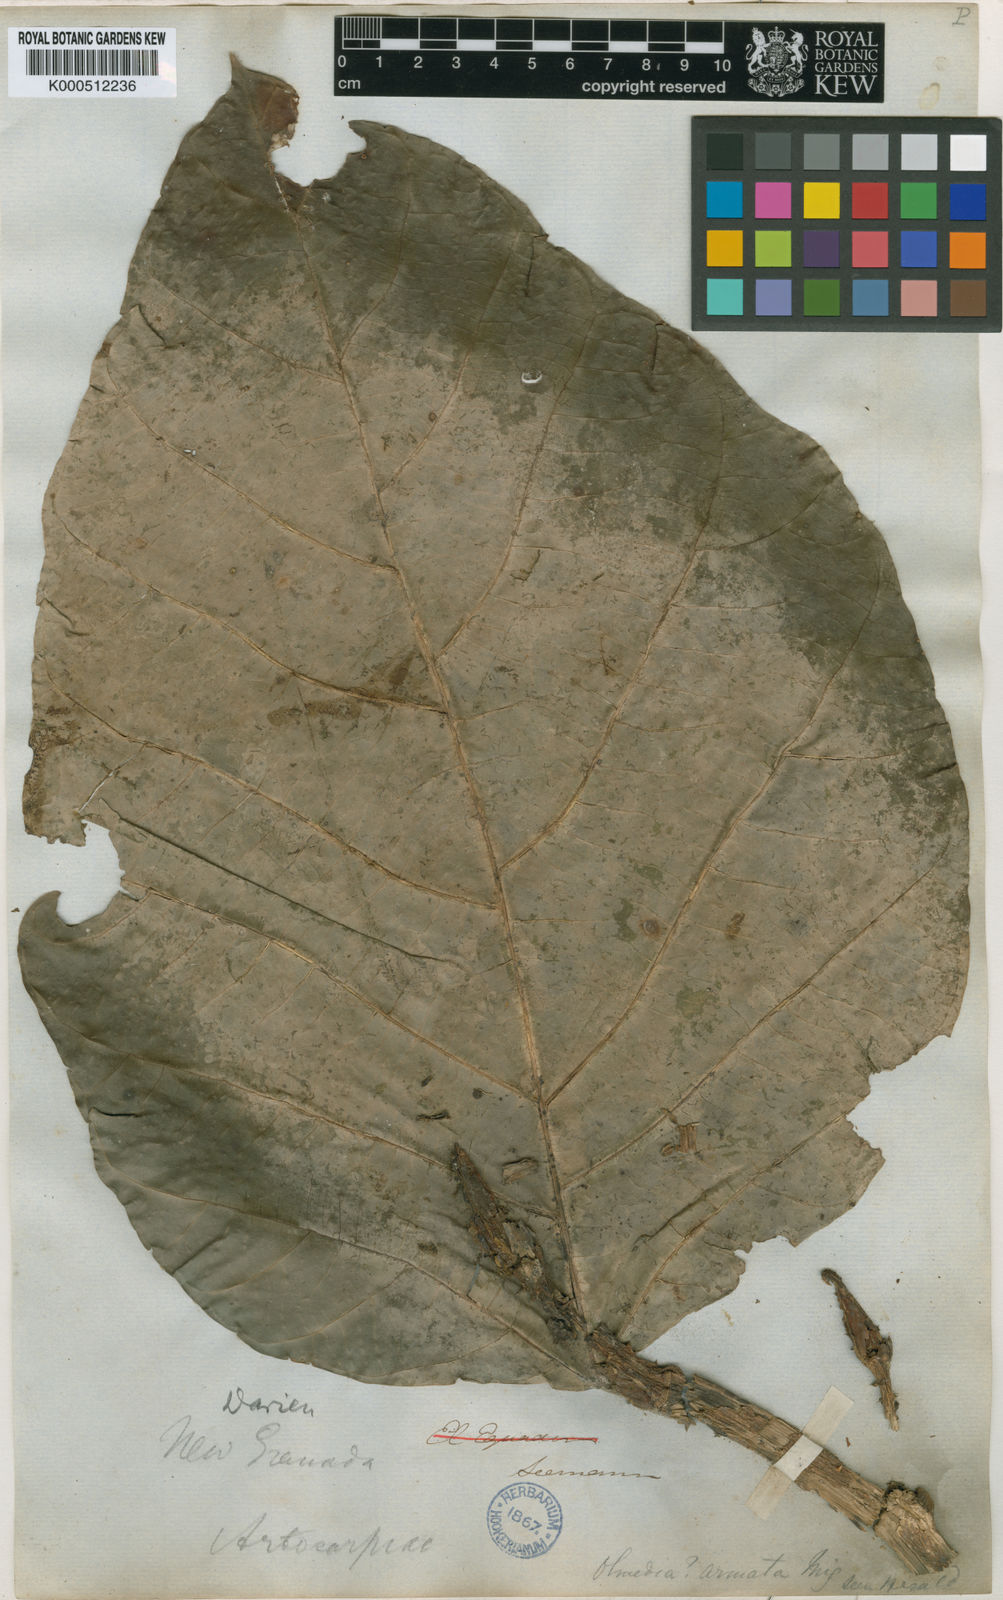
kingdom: Plantae
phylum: Tracheophyta
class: Magnoliopsida
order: Rosales
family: Moraceae
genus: Poulsenia
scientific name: Poulsenia armata
